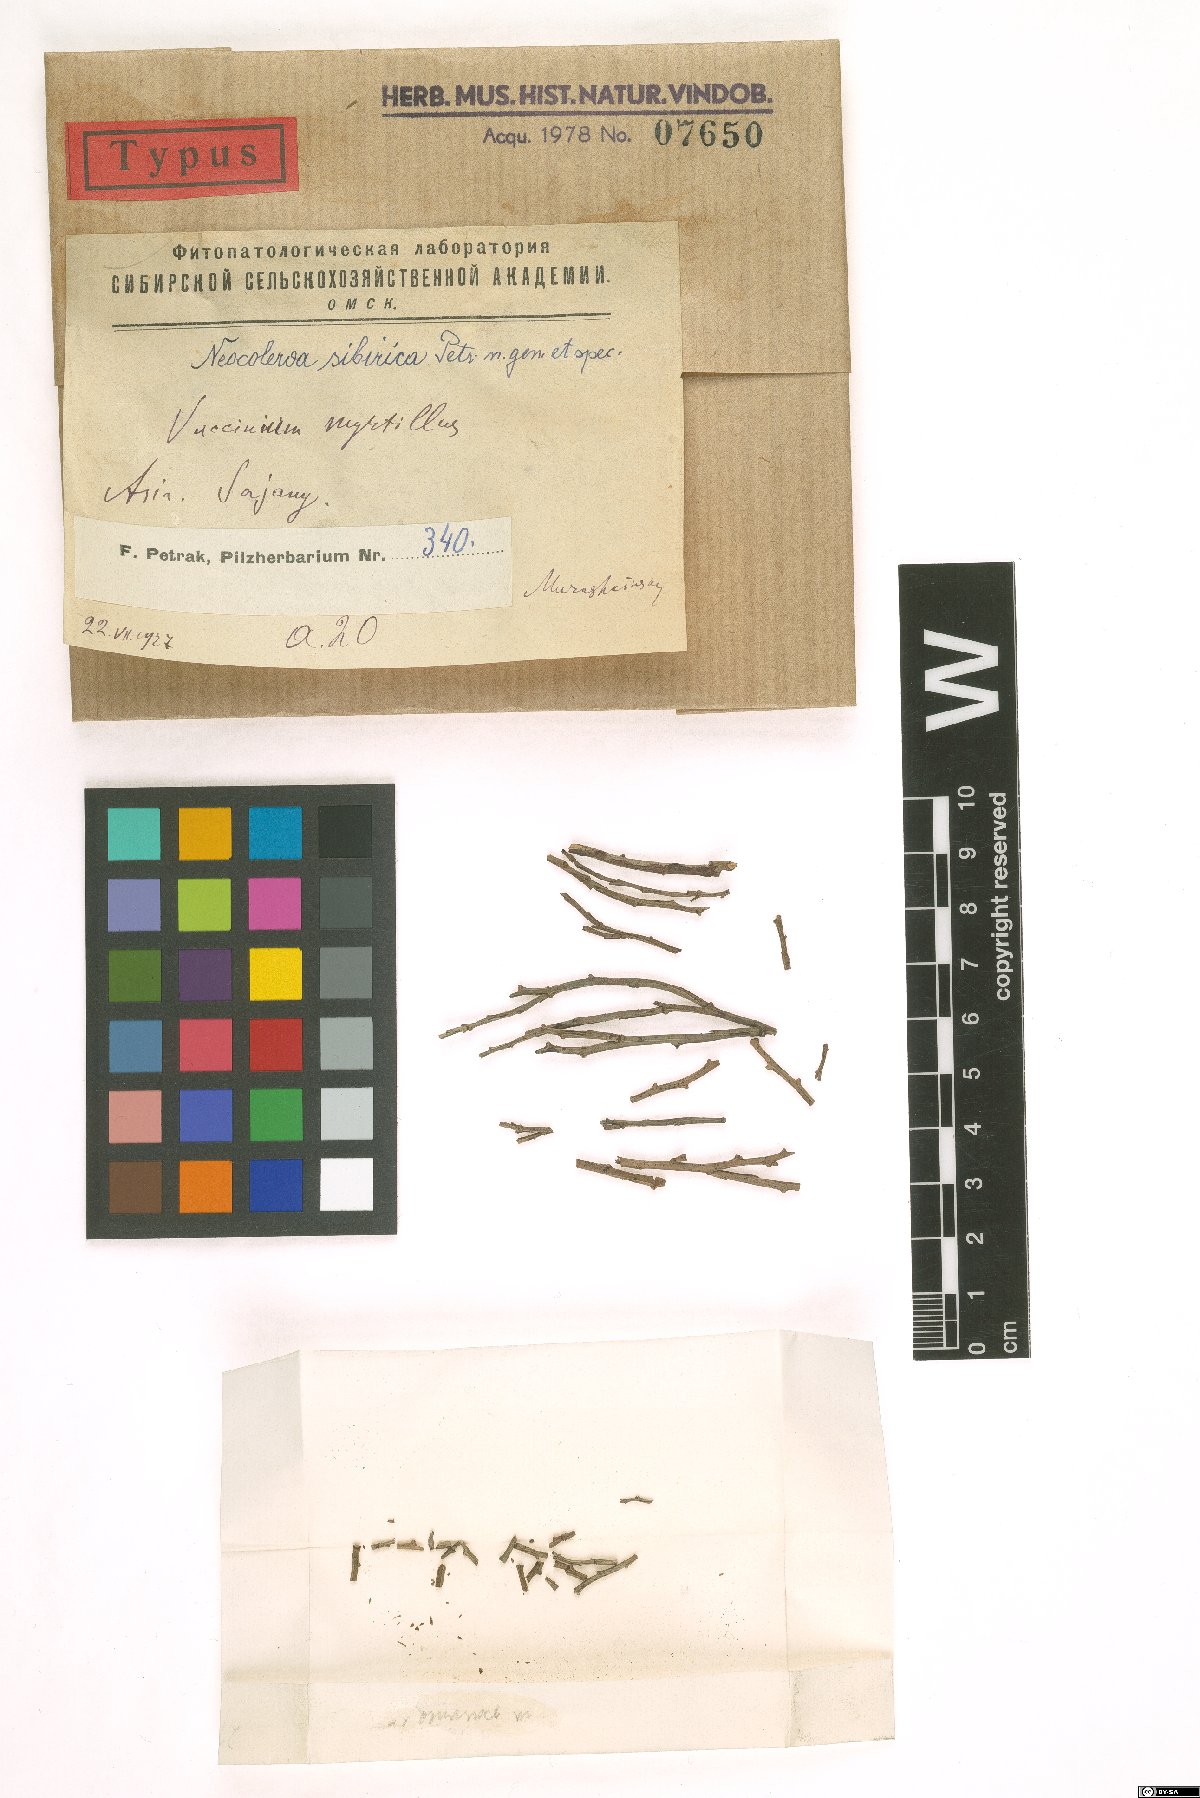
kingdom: Fungi
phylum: Ascomycota
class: Dothideomycetes
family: Pseudoperisporiaceae
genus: Neocoleroa
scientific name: Neocoleroa sibirica
